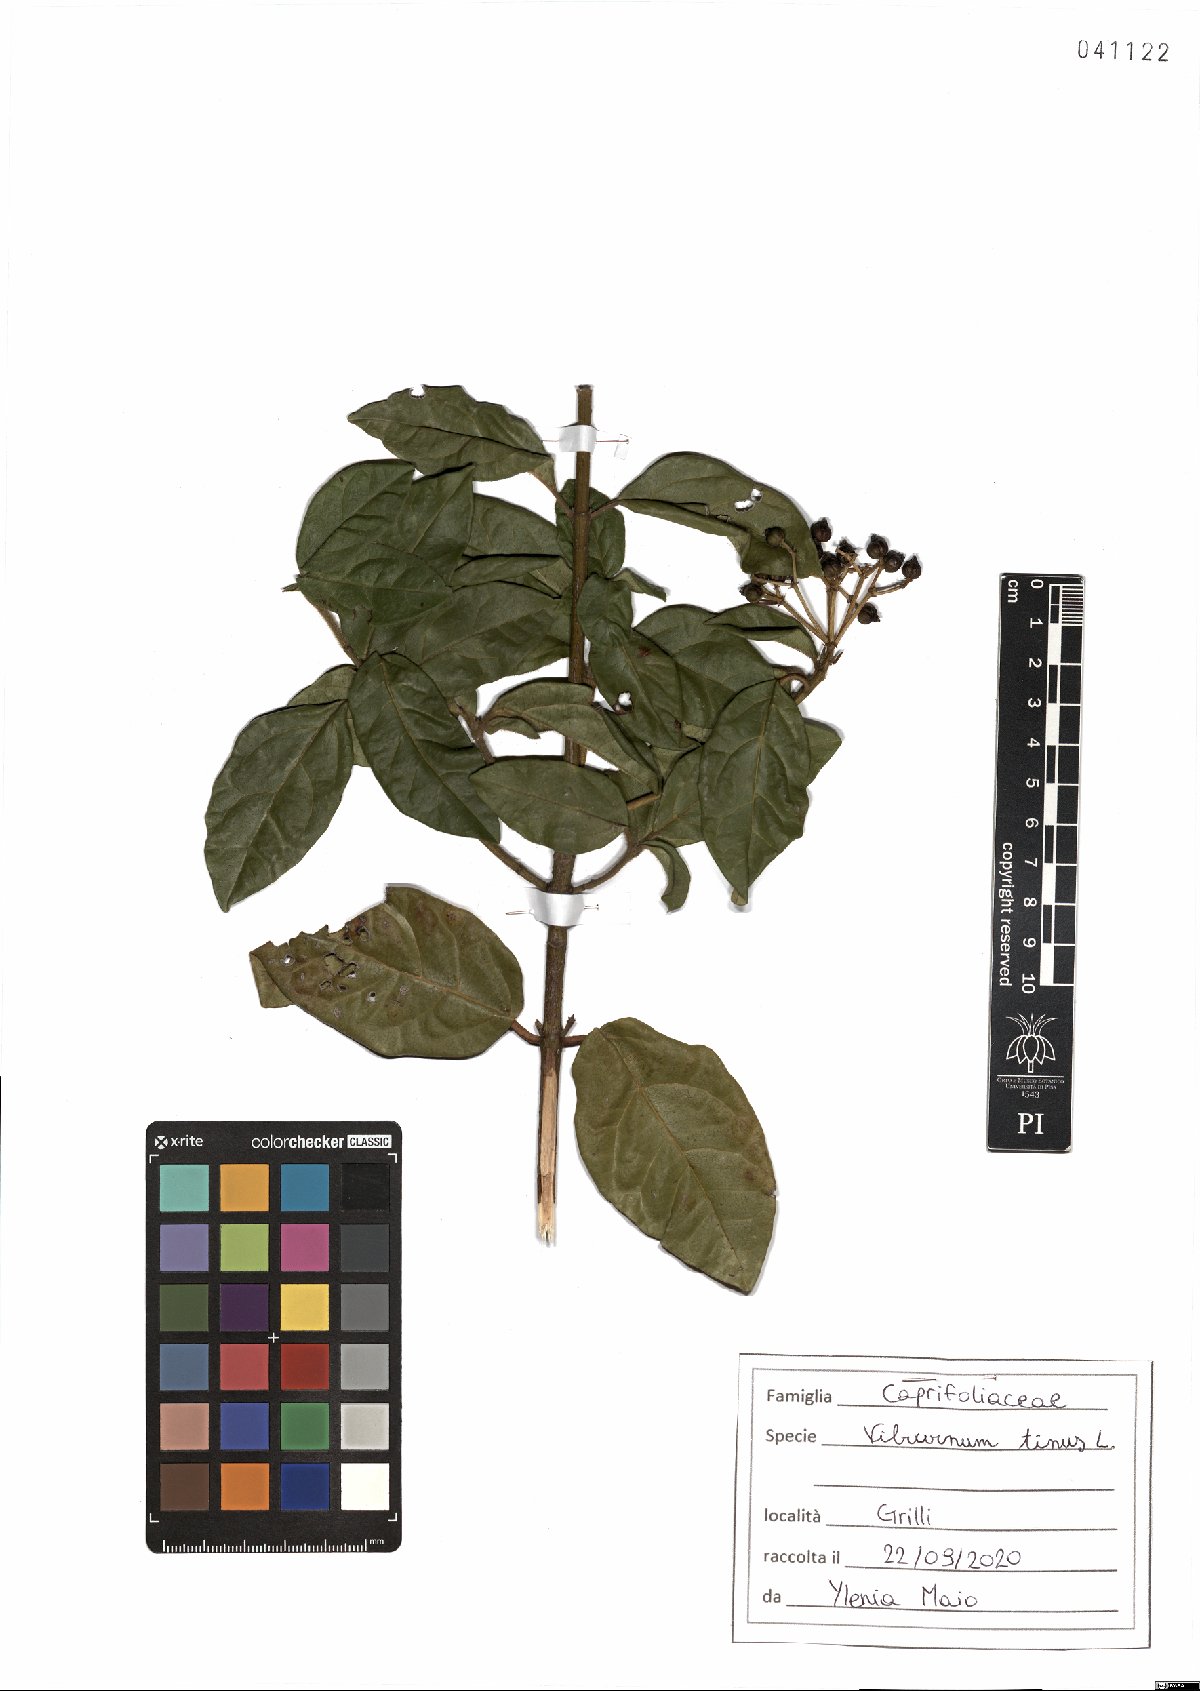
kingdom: Plantae
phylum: Tracheophyta
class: Magnoliopsida
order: Dipsacales
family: Viburnaceae
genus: Viburnum
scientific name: Viburnum tinus
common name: Laurustinus
